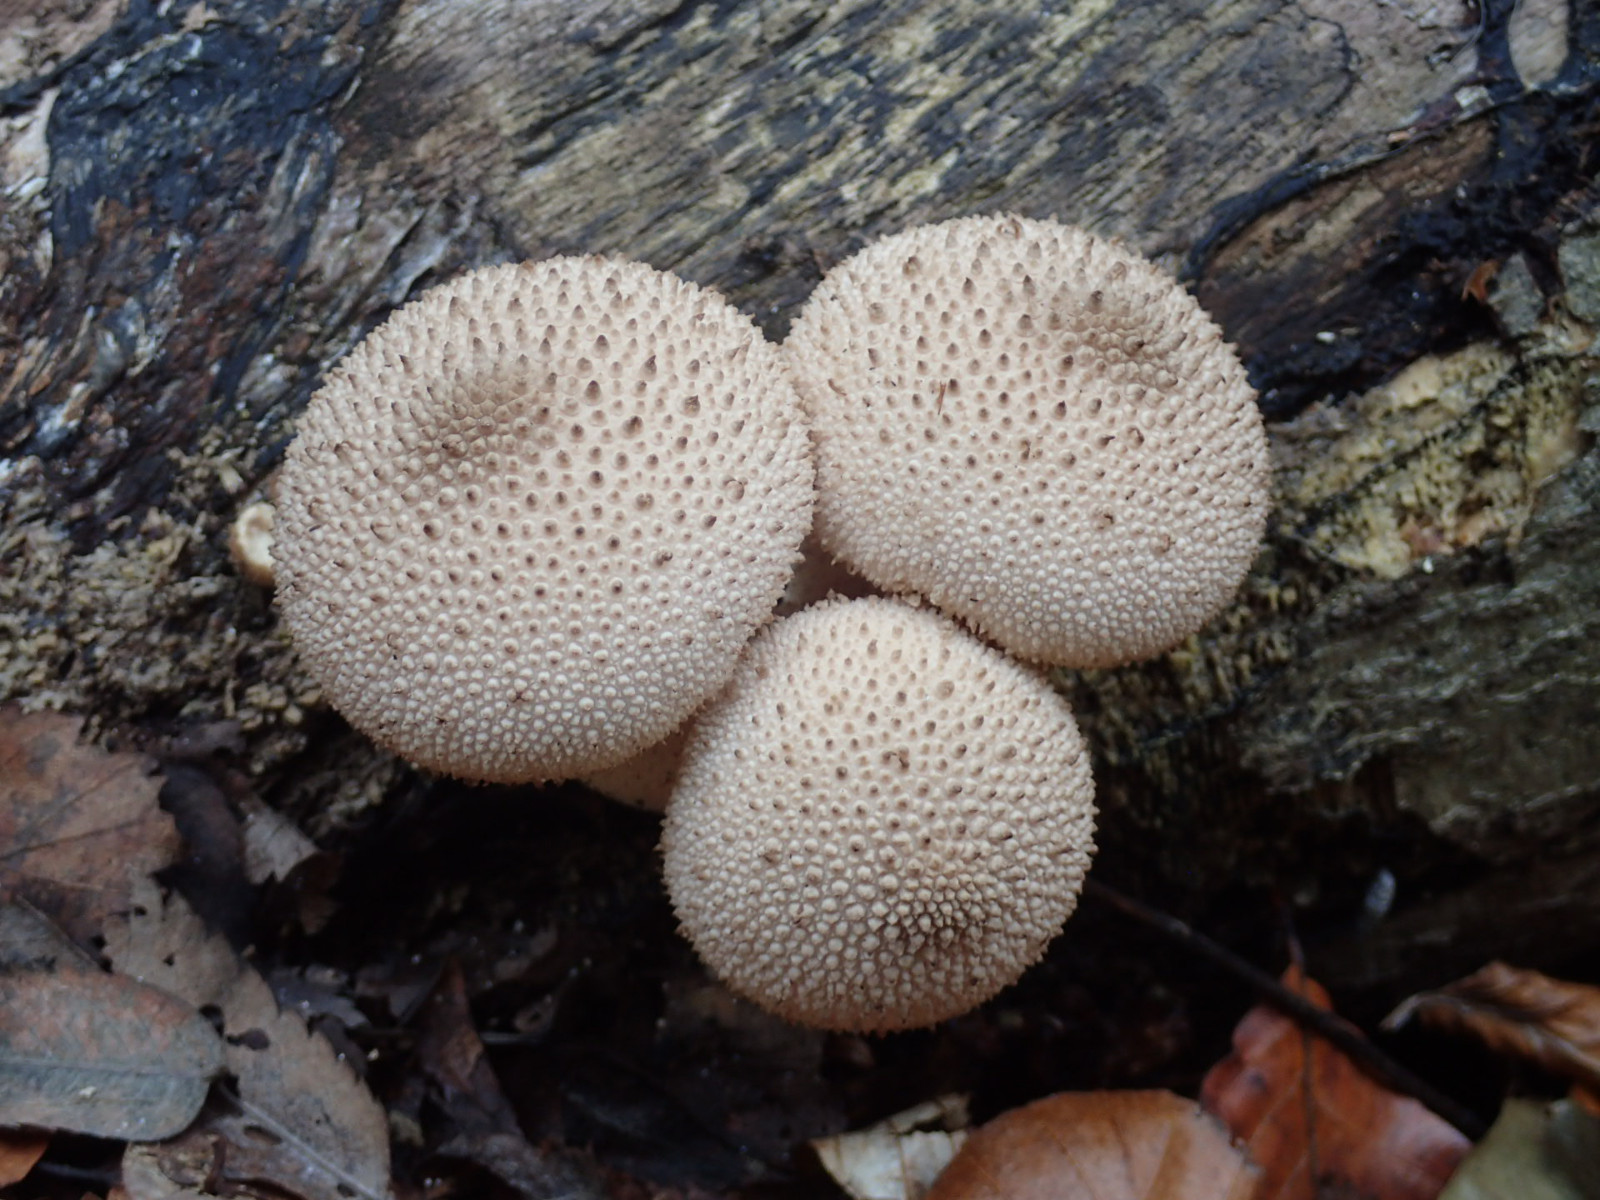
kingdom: Fungi
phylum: Basidiomycota
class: Agaricomycetes
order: Agaricales
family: Lycoperdaceae
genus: Lycoperdon
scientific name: Lycoperdon perlatum
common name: krystal-støvbold
